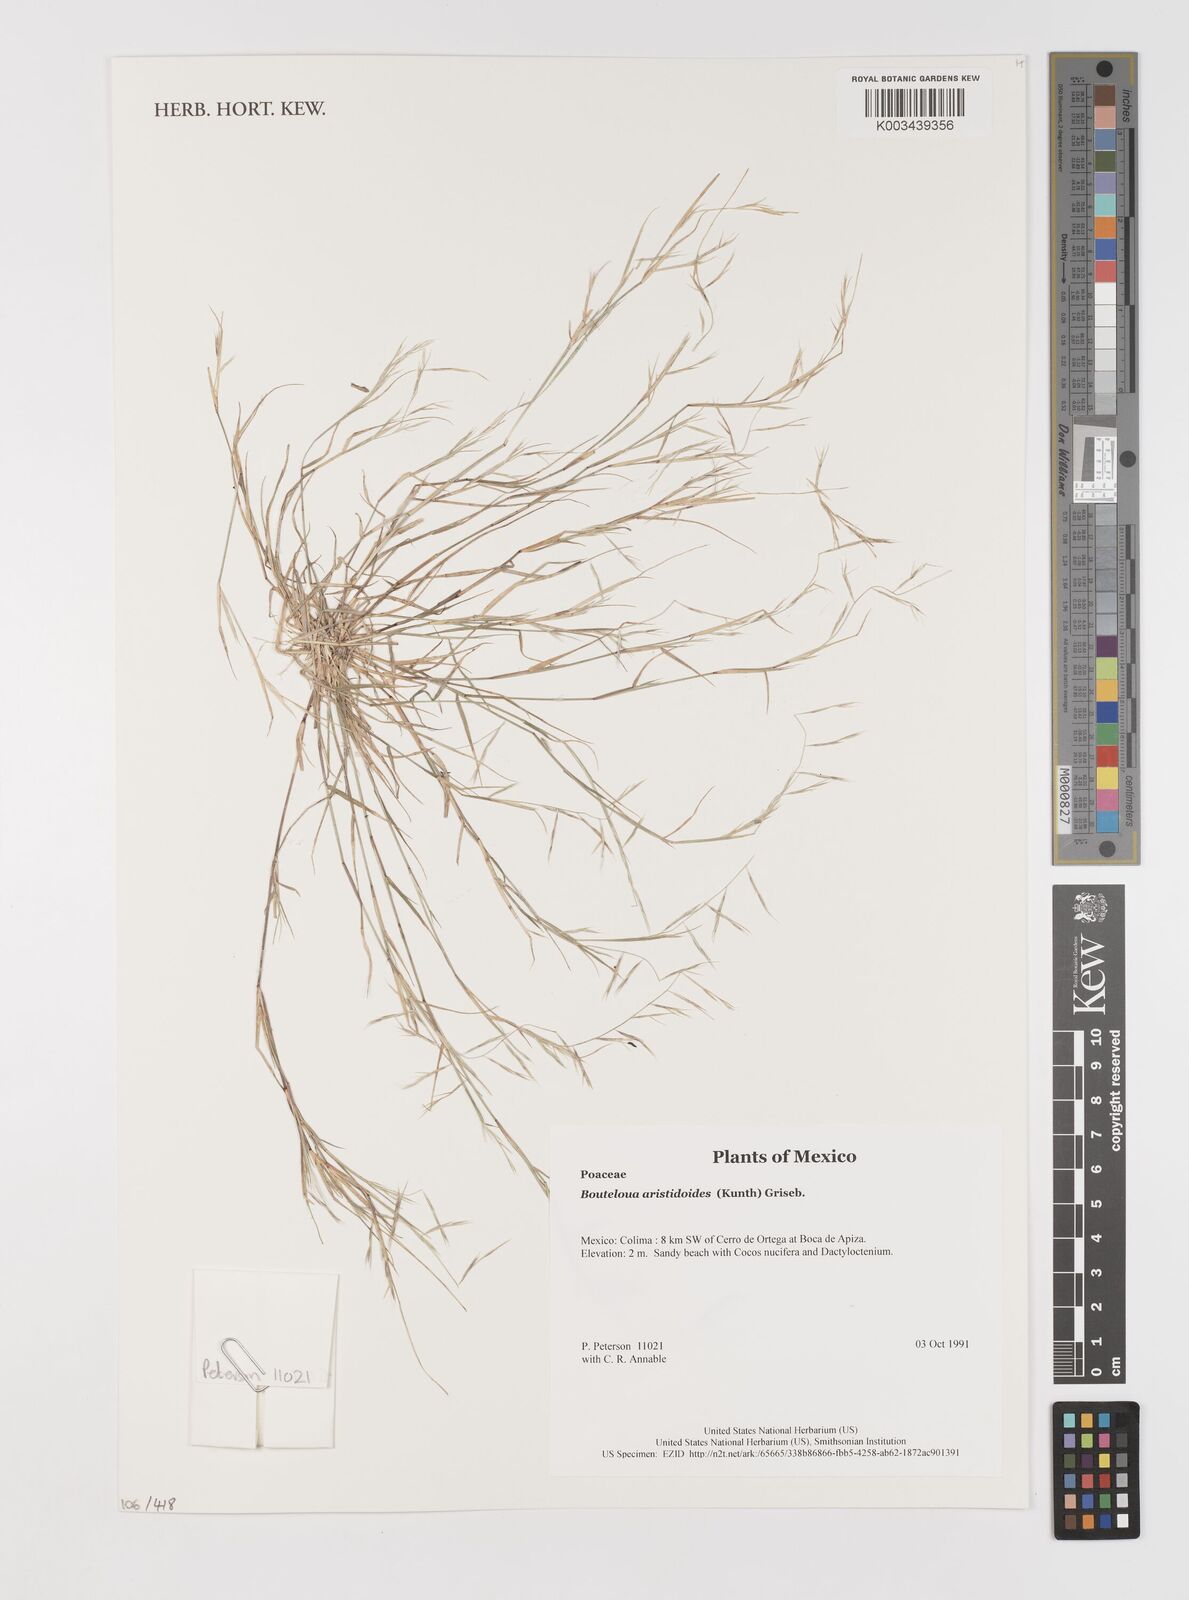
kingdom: Plantae
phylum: Tracheophyta
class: Liliopsida
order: Poales
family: Poaceae
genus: Bouteloua
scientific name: Bouteloua aristidoides
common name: Needle grama
